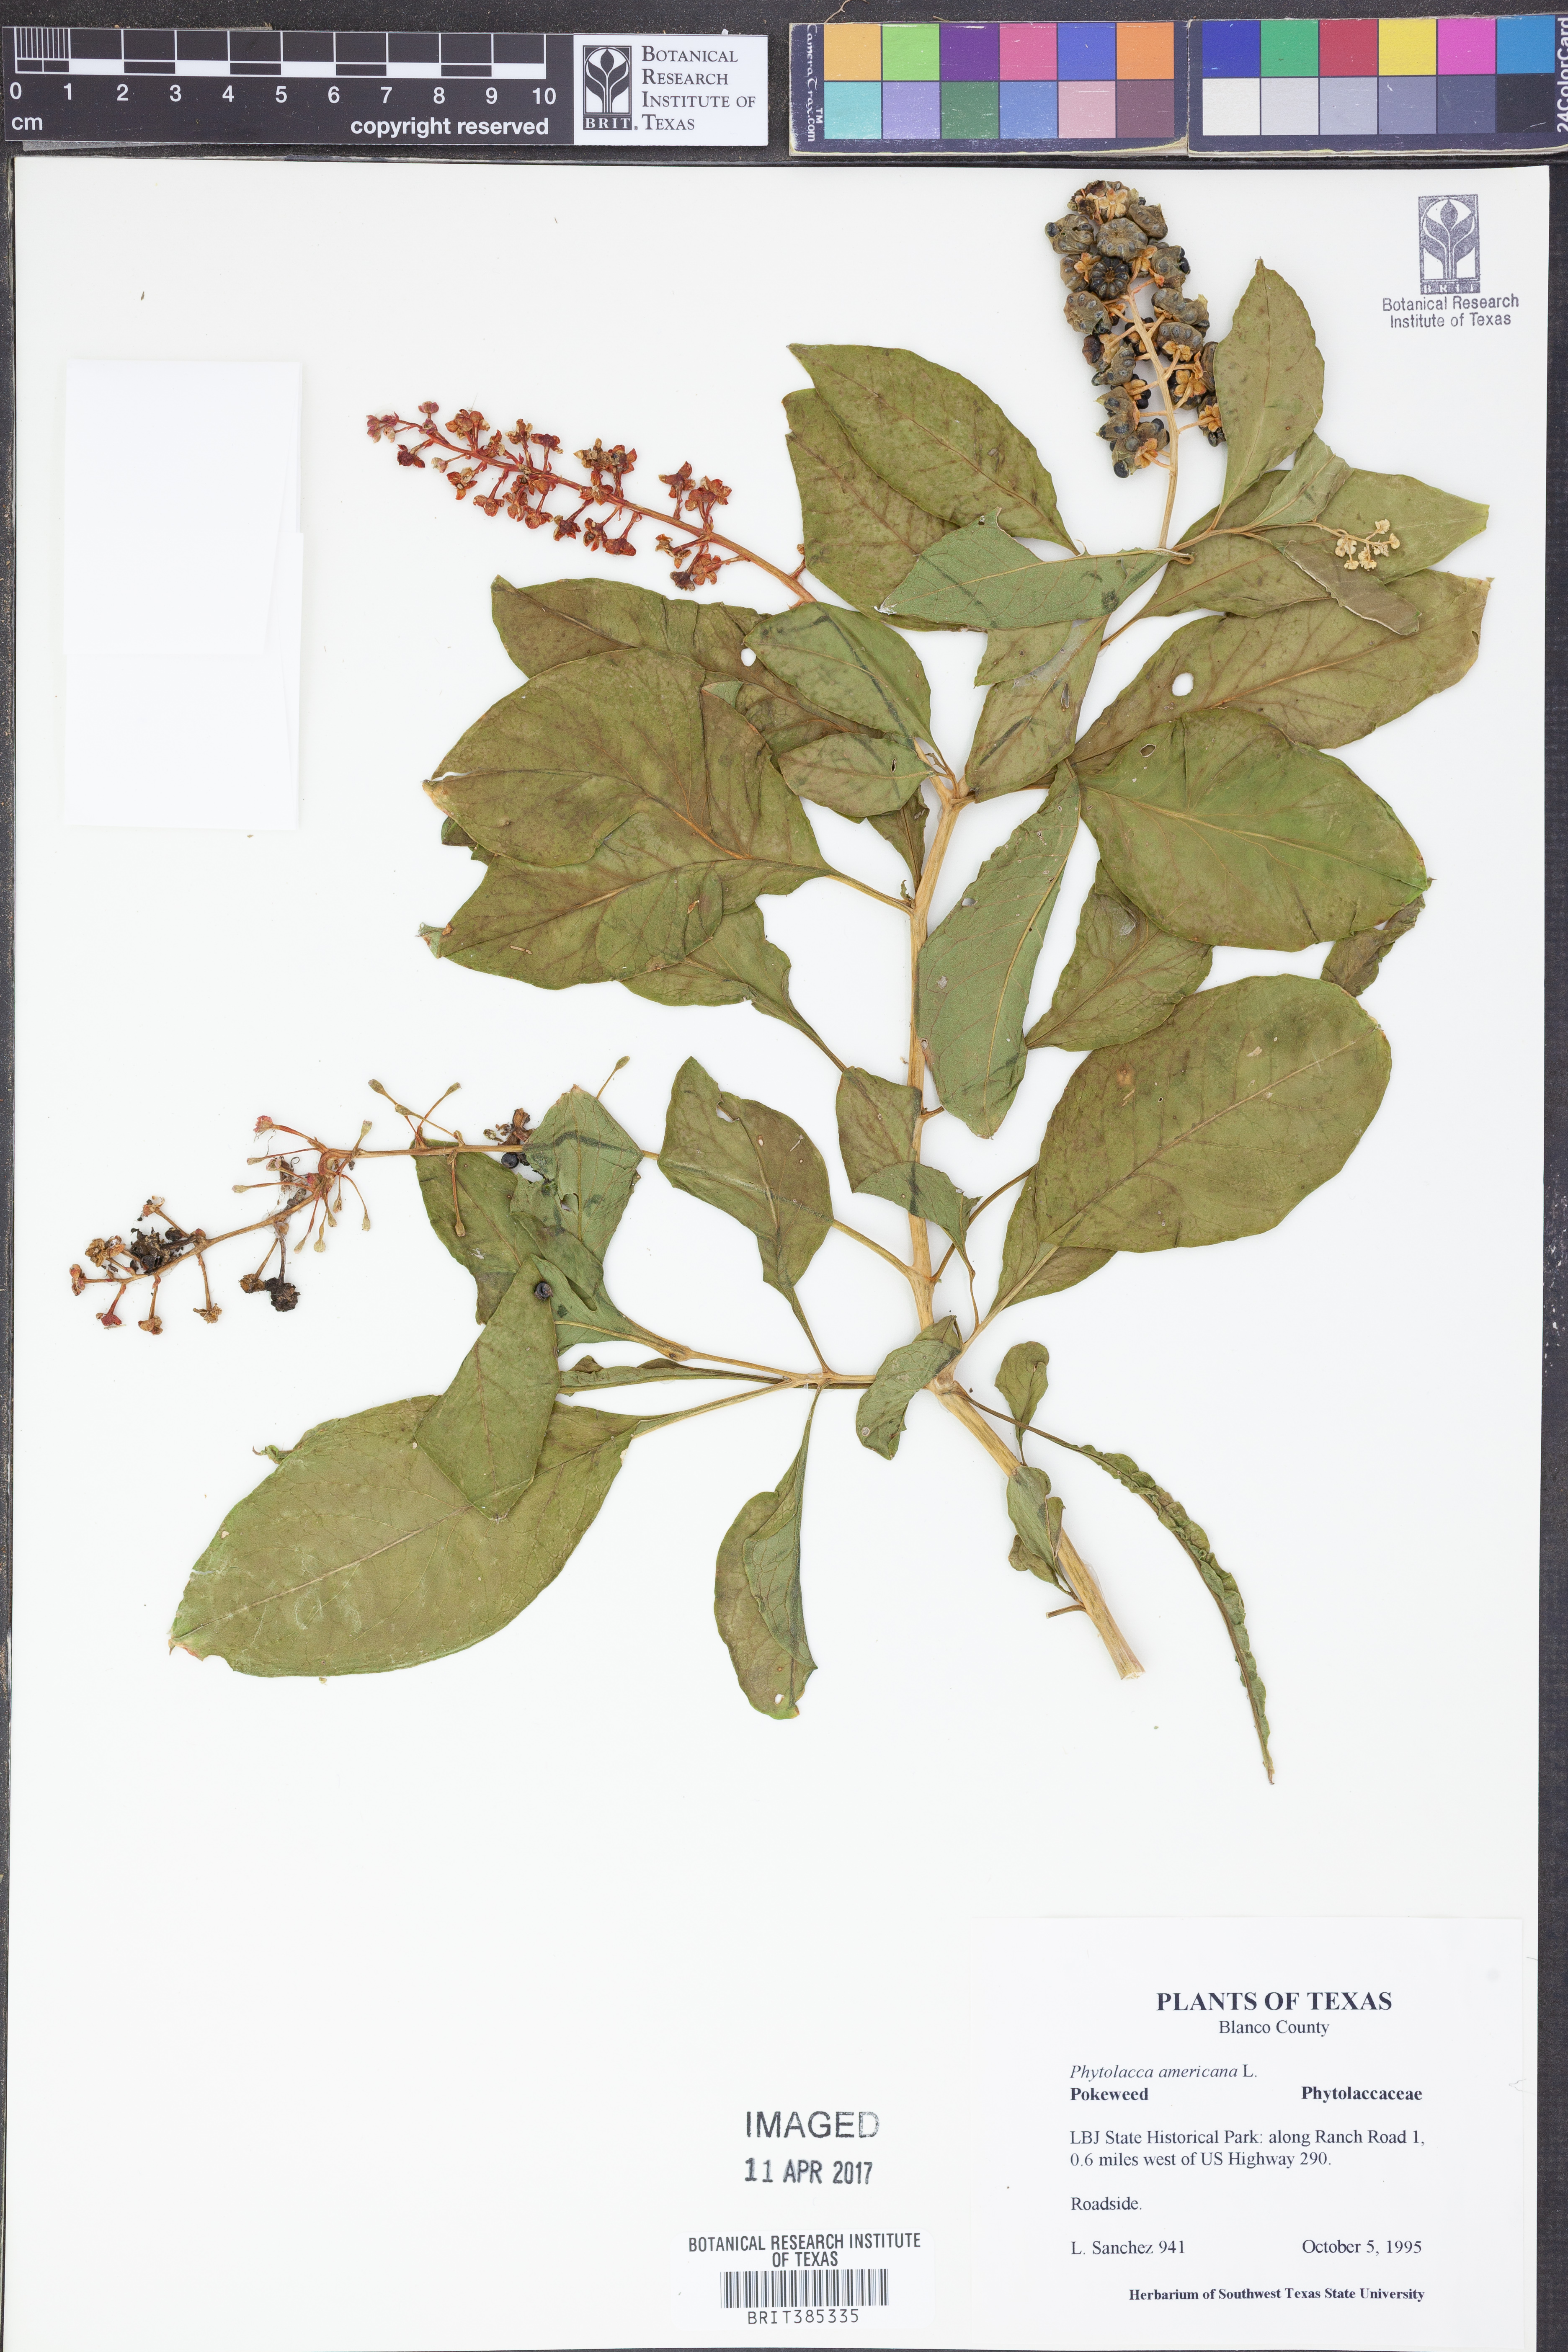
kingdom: Plantae
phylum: Tracheophyta
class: Magnoliopsida
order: Caryophyllales
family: Phytolaccaceae
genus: Phytolacca
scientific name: Phytolacca americana
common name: American pokeweed
